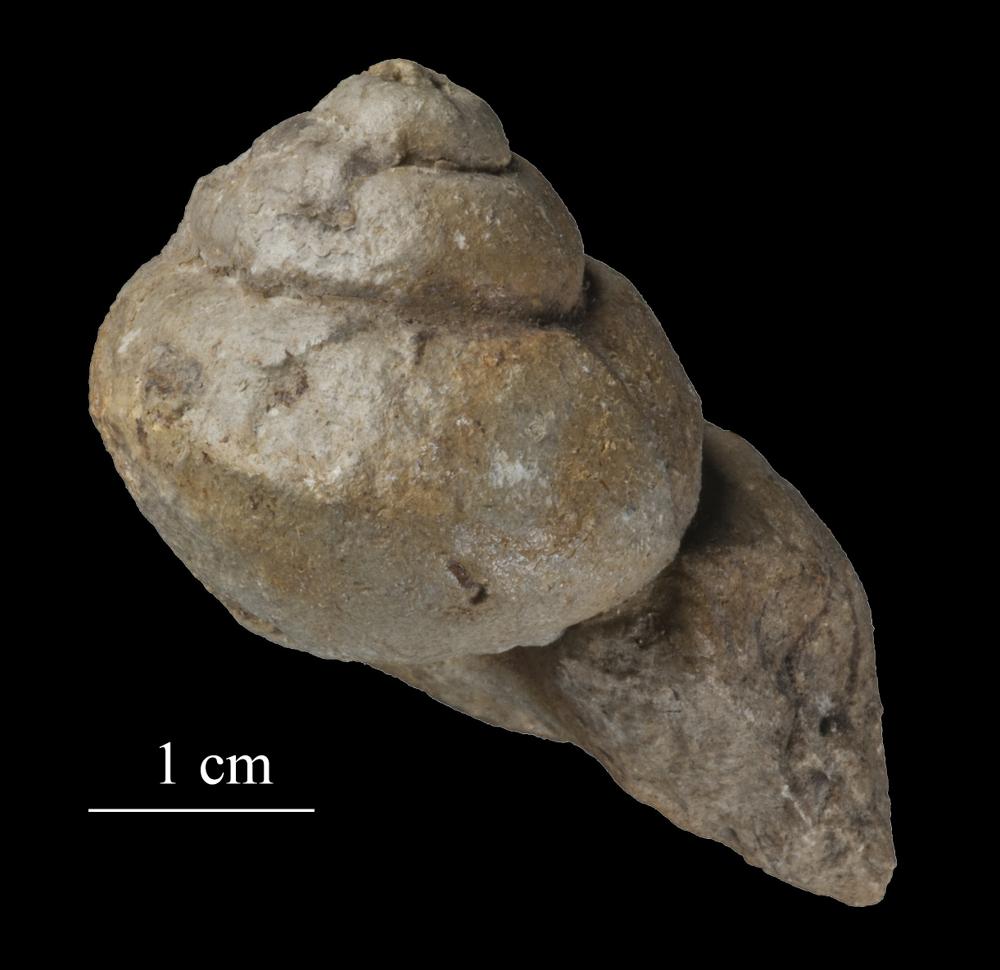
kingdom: Animalia
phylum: Mollusca
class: Gastropoda
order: Pleurotomariida
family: Phymatopleuridae
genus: Worthenia
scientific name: Worthenia
